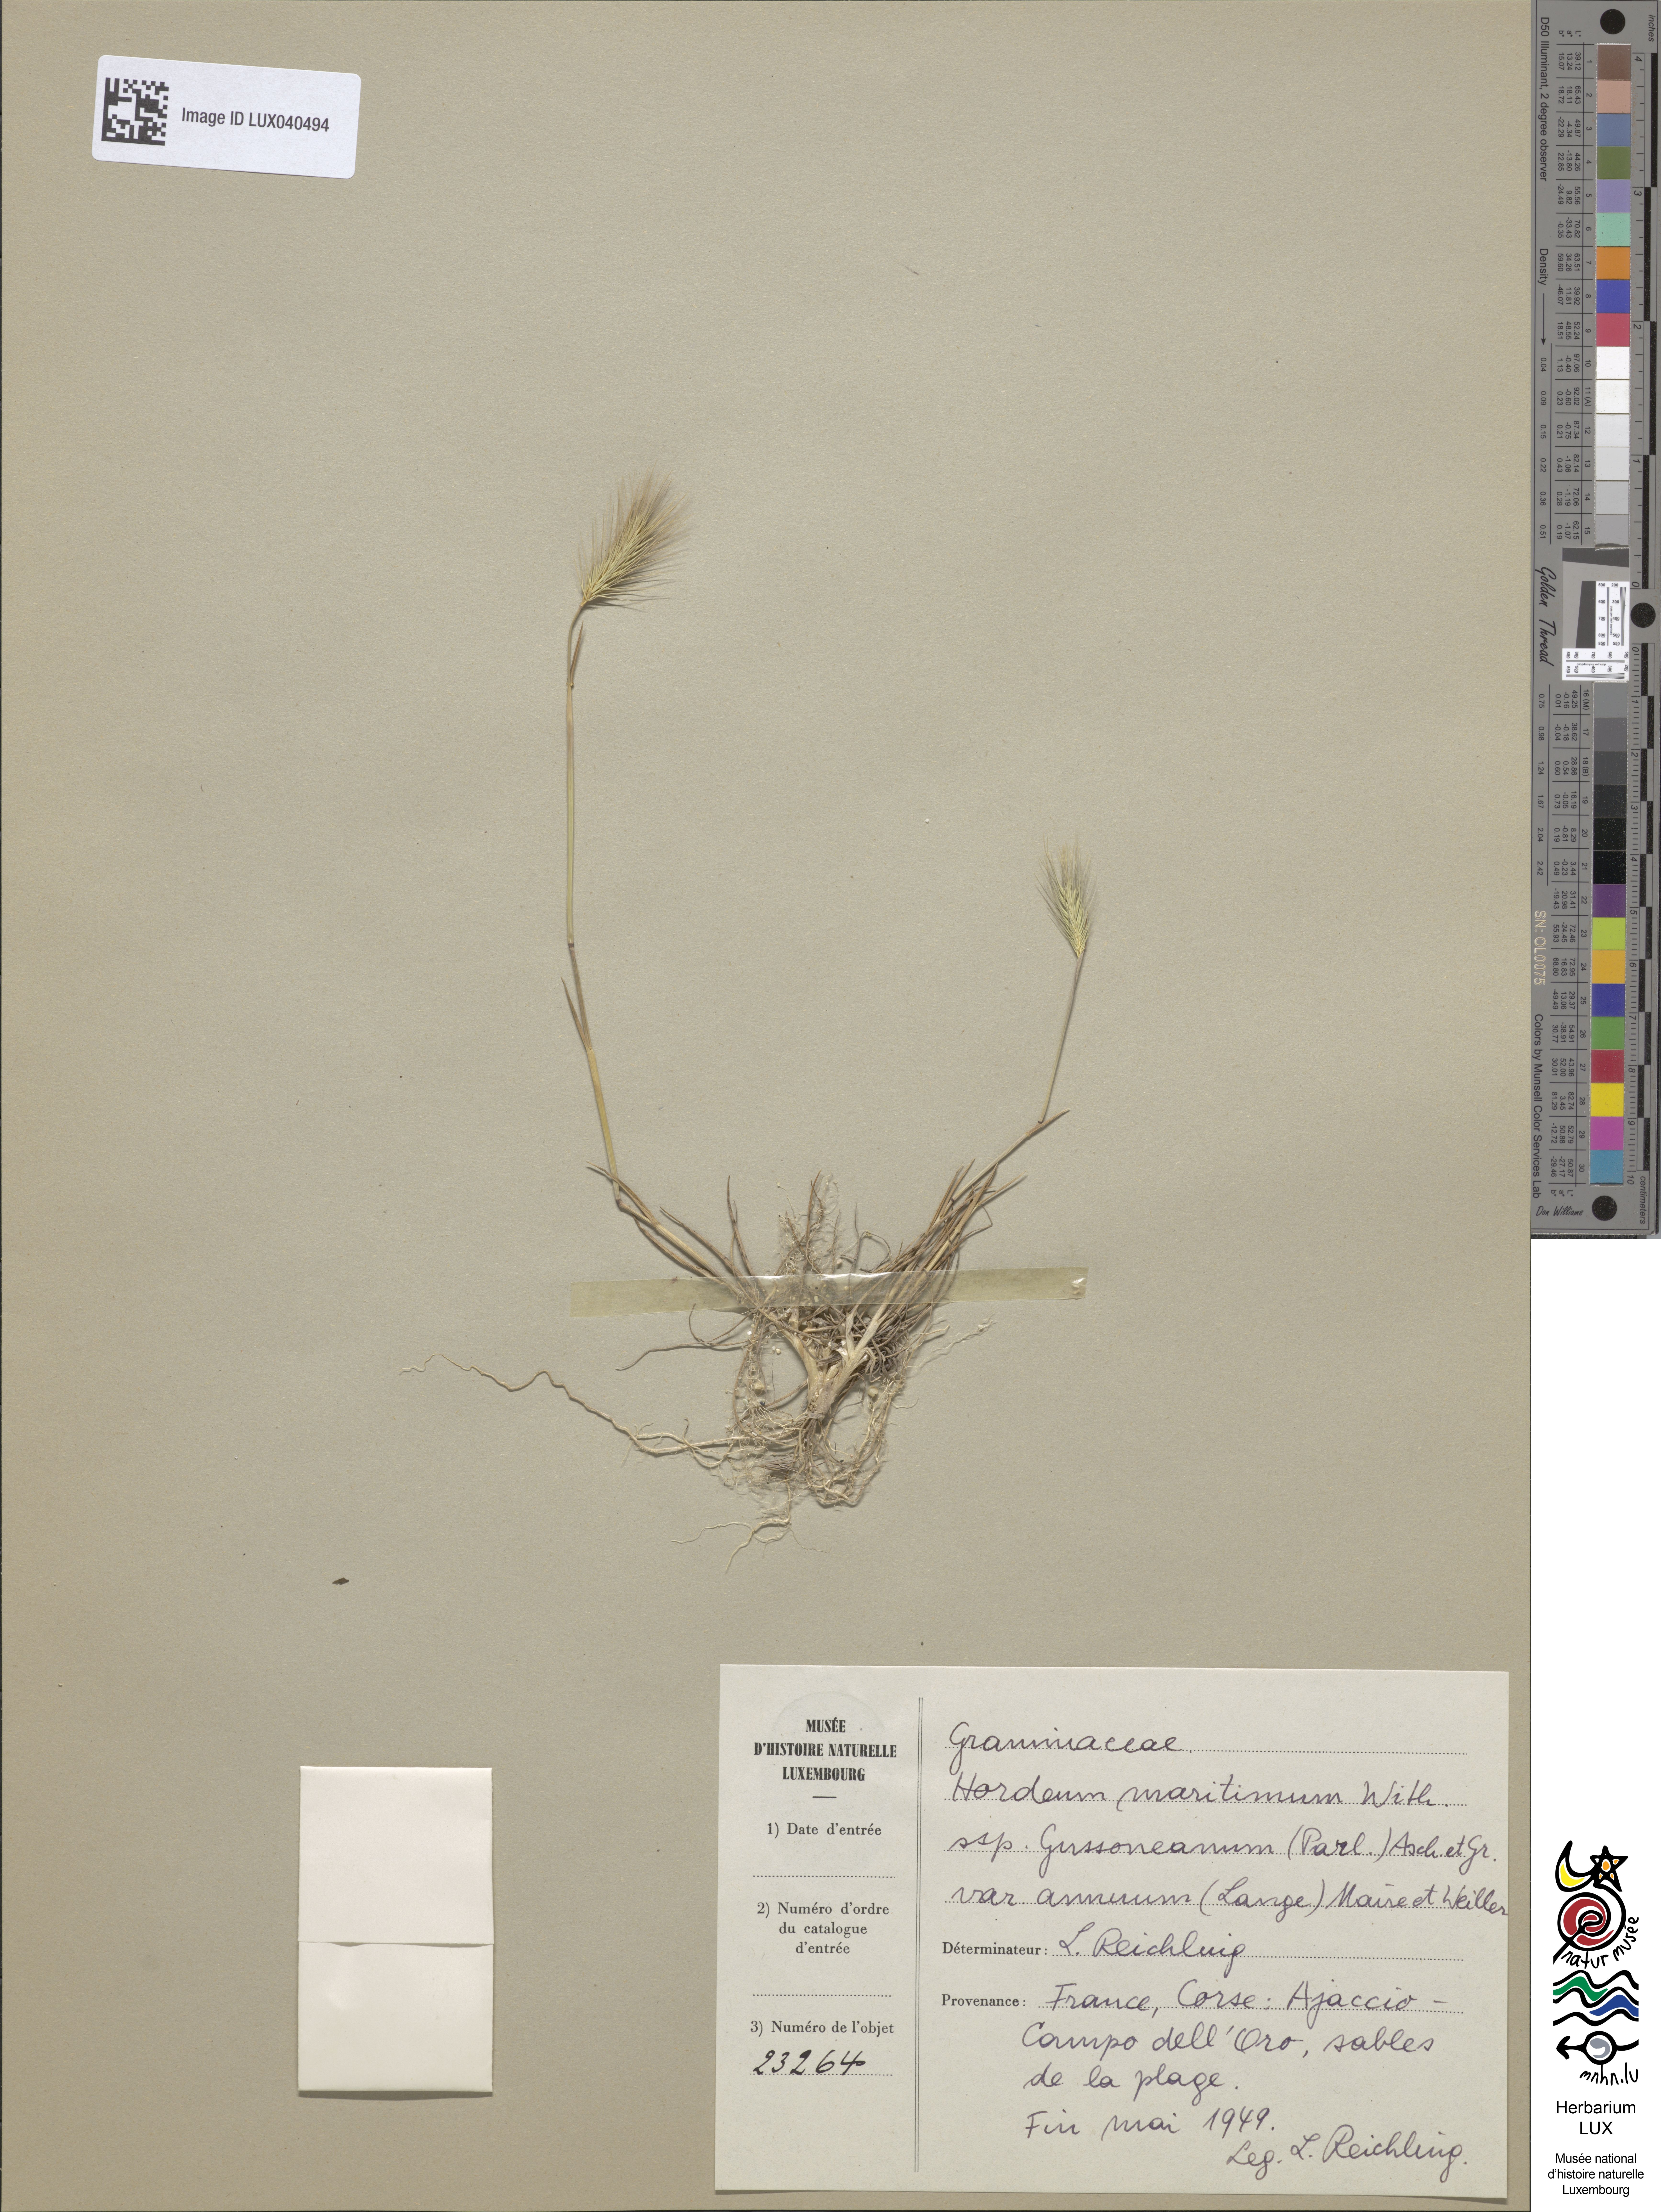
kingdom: Plantae
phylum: Tracheophyta
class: Liliopsida
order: Poales
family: Poaceae
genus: Hordeum
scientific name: Hordeum marinum
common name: Sea barley
